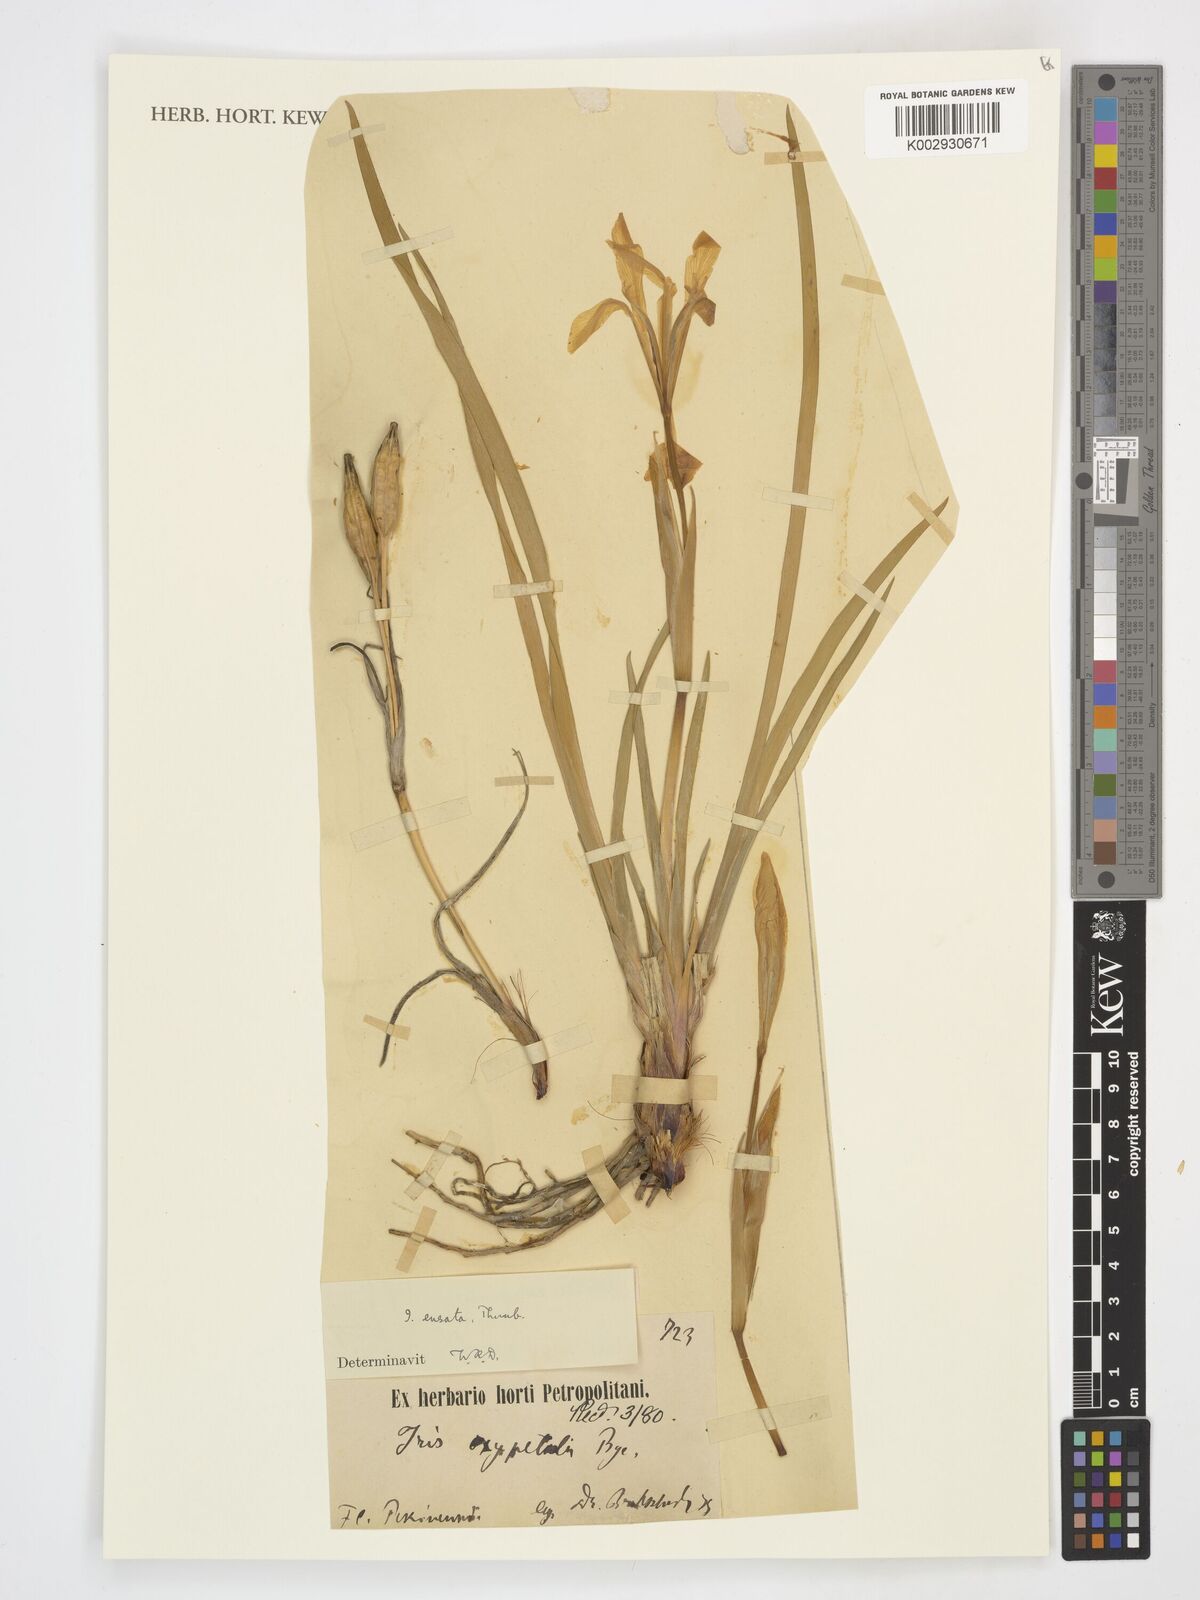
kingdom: Plantae
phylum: Tracheophyta
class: Liliopsida
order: Asparagales
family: Iridaceae
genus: Iris
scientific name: Iris ensata
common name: Beaked iris
